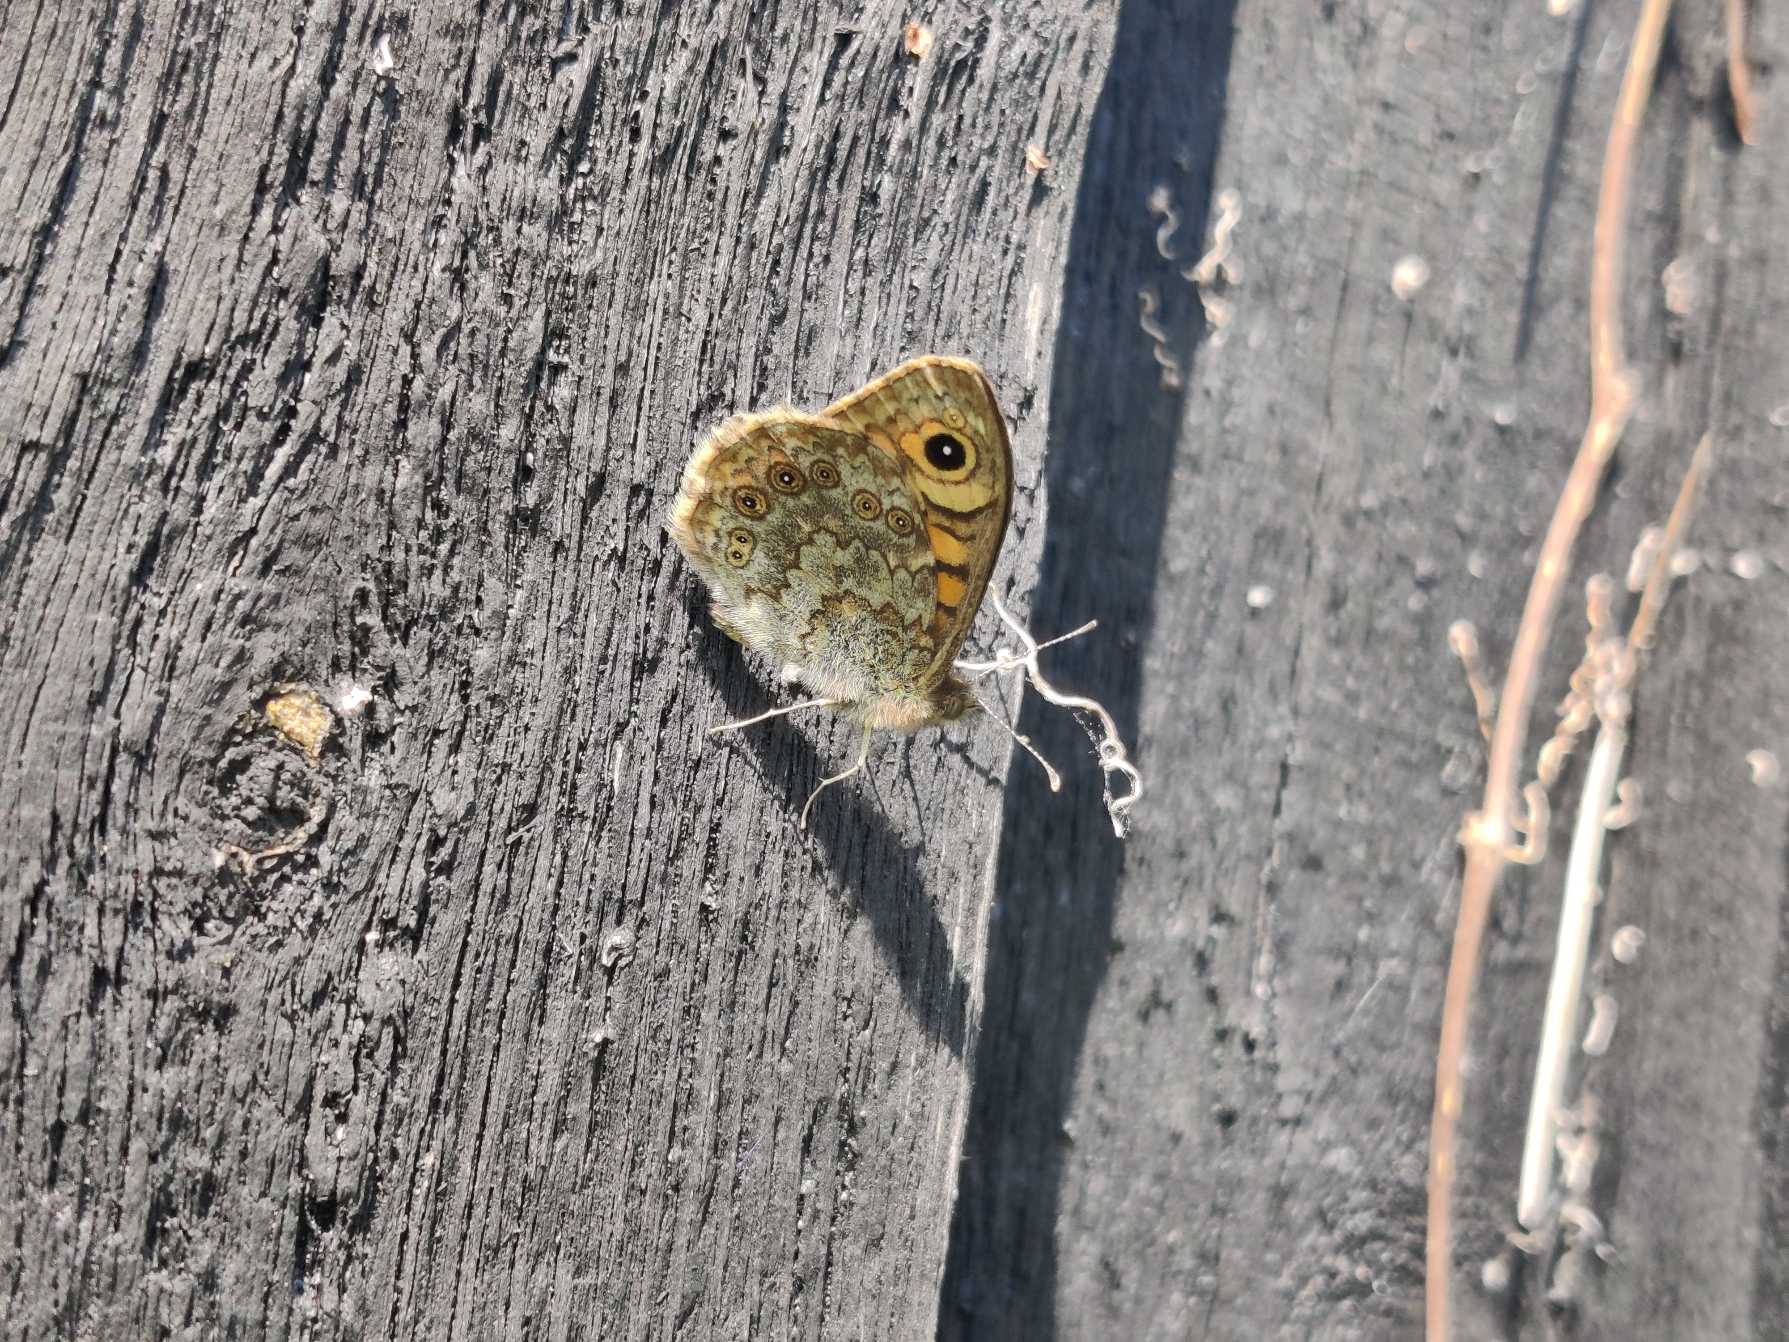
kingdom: Animalia
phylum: Arthropoda
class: Insecta
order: Lepidoptera
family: Nymphalidae
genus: Pararge
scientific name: Pararge Lasiommata megera
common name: Vejrandøje
